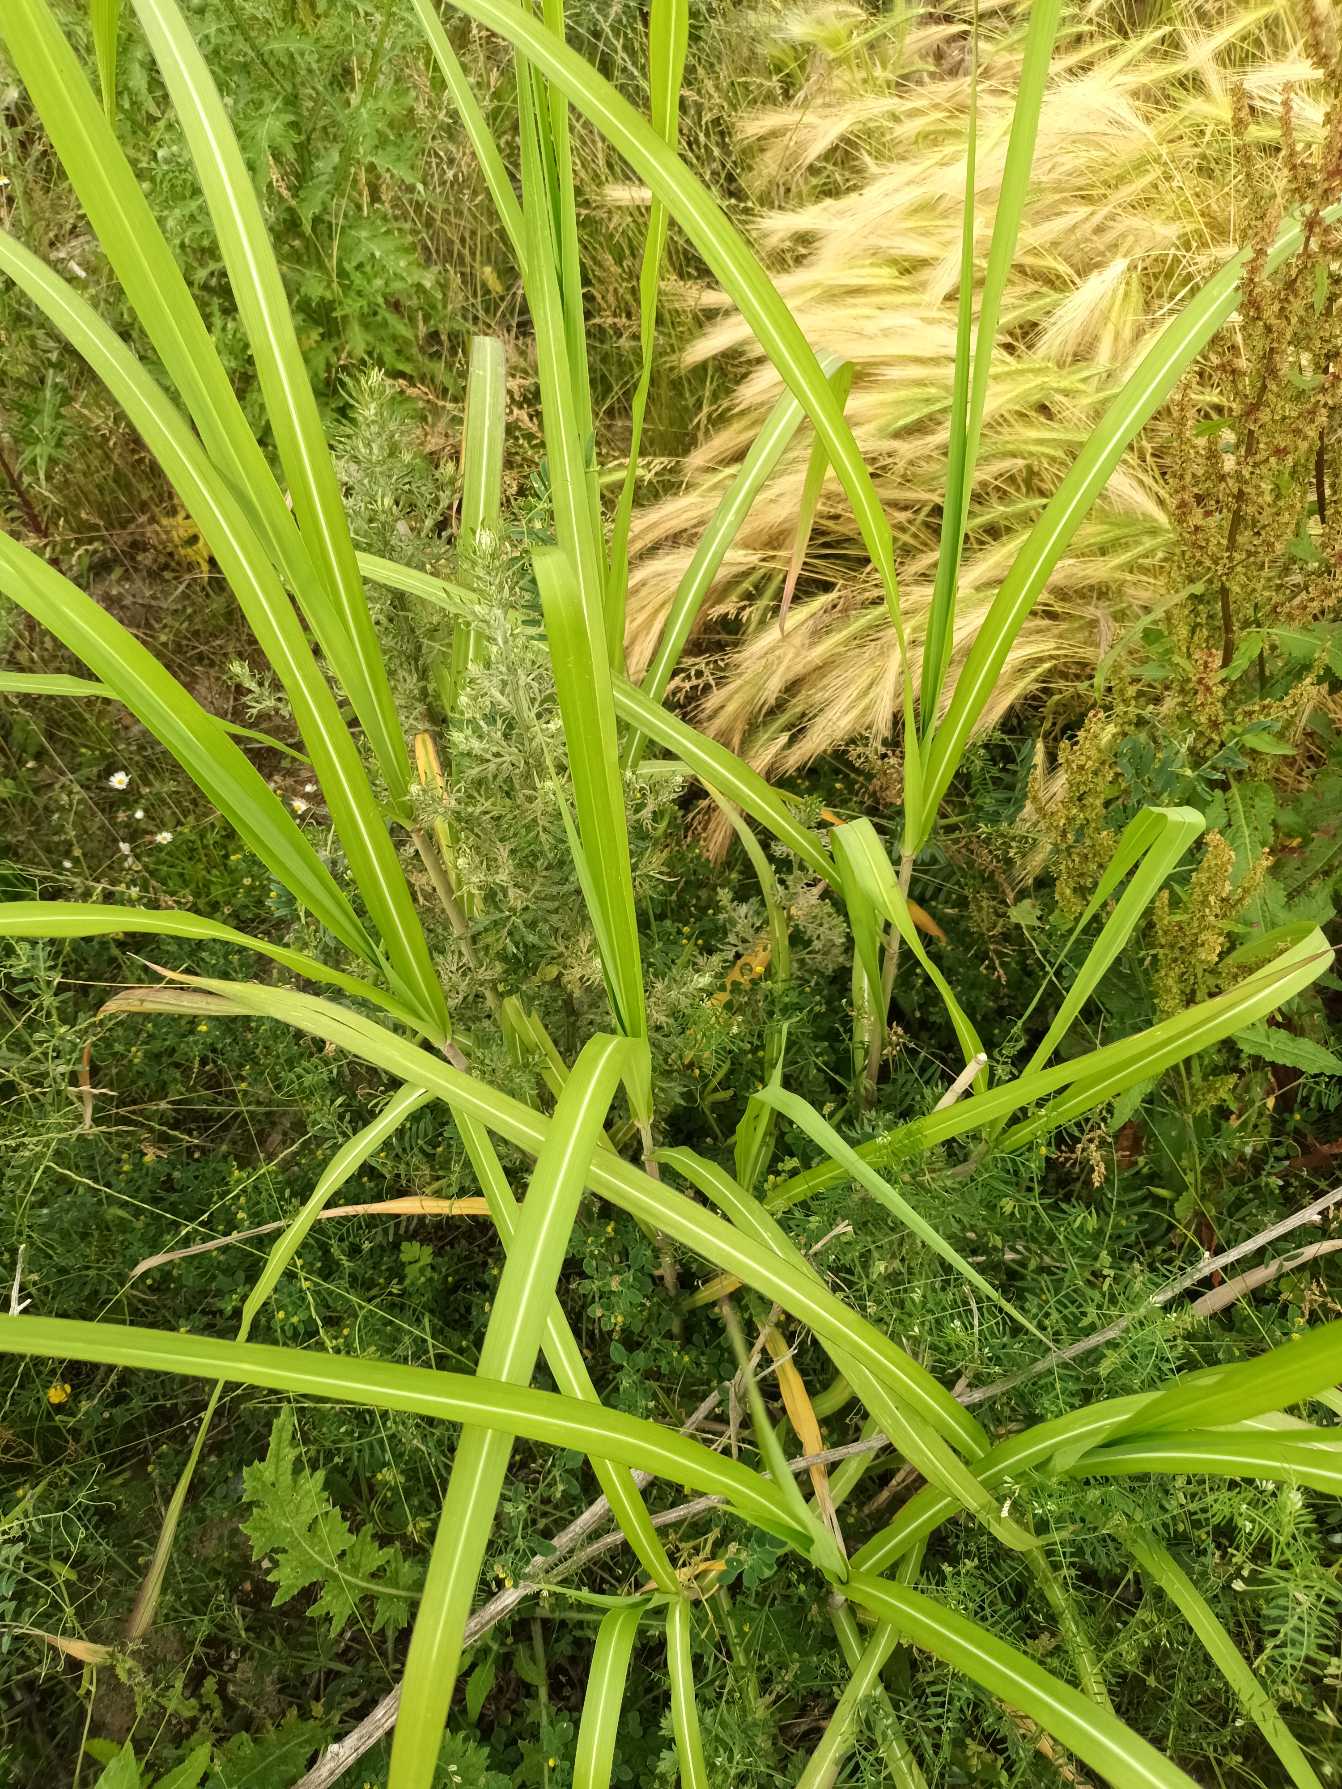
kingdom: Plantae
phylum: Tracheophyta
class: Liliopsida
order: Poales
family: Poaceae
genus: Miscanthus
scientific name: Miscanthus sinensis
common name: Elefantgræs
